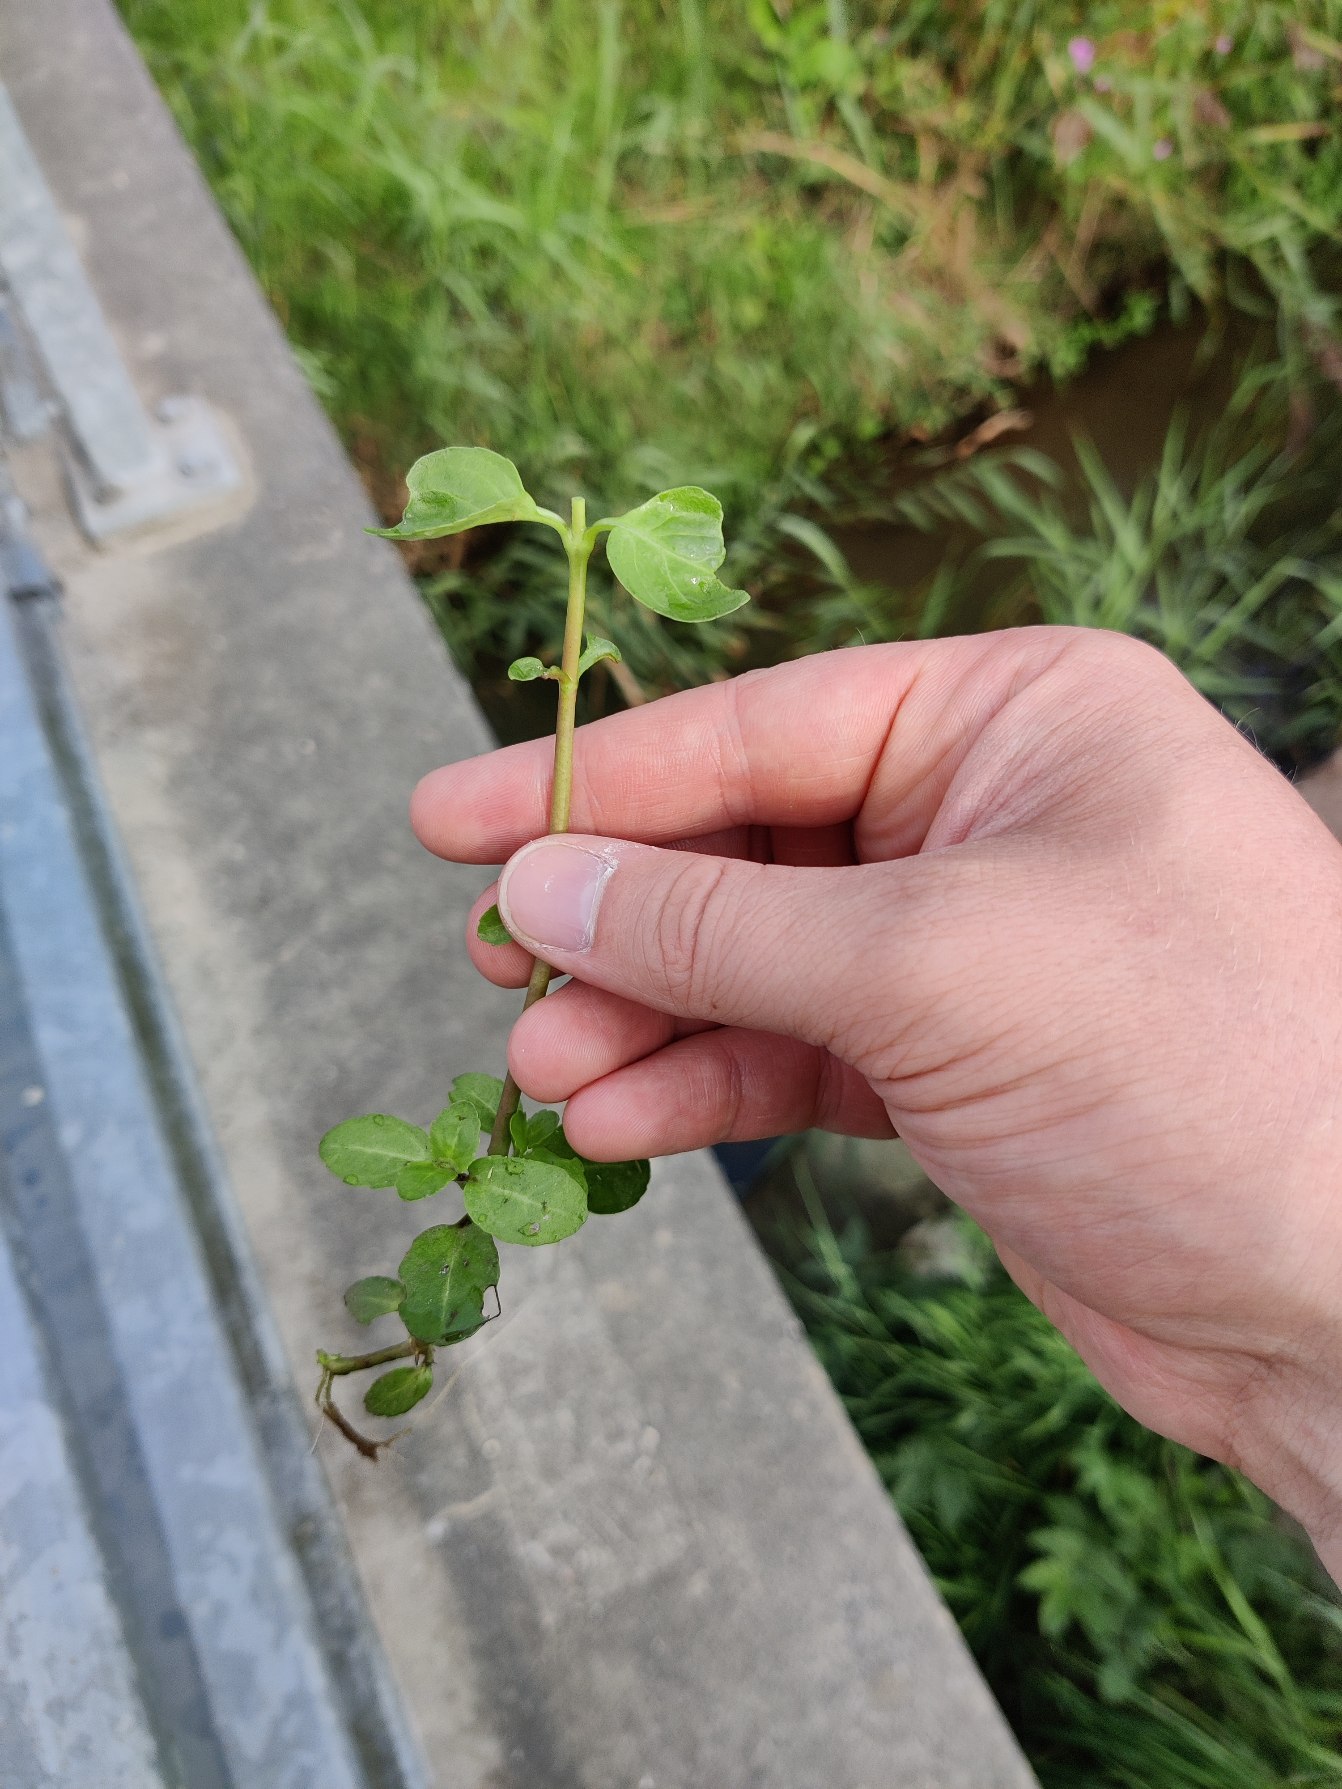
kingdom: Plantae
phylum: Tracheophyta
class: Magnoliopsida
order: Lamiales
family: Plantaginaceae
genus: Veronica
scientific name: Veronica beccabunga
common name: Tykbladet ærenpris
